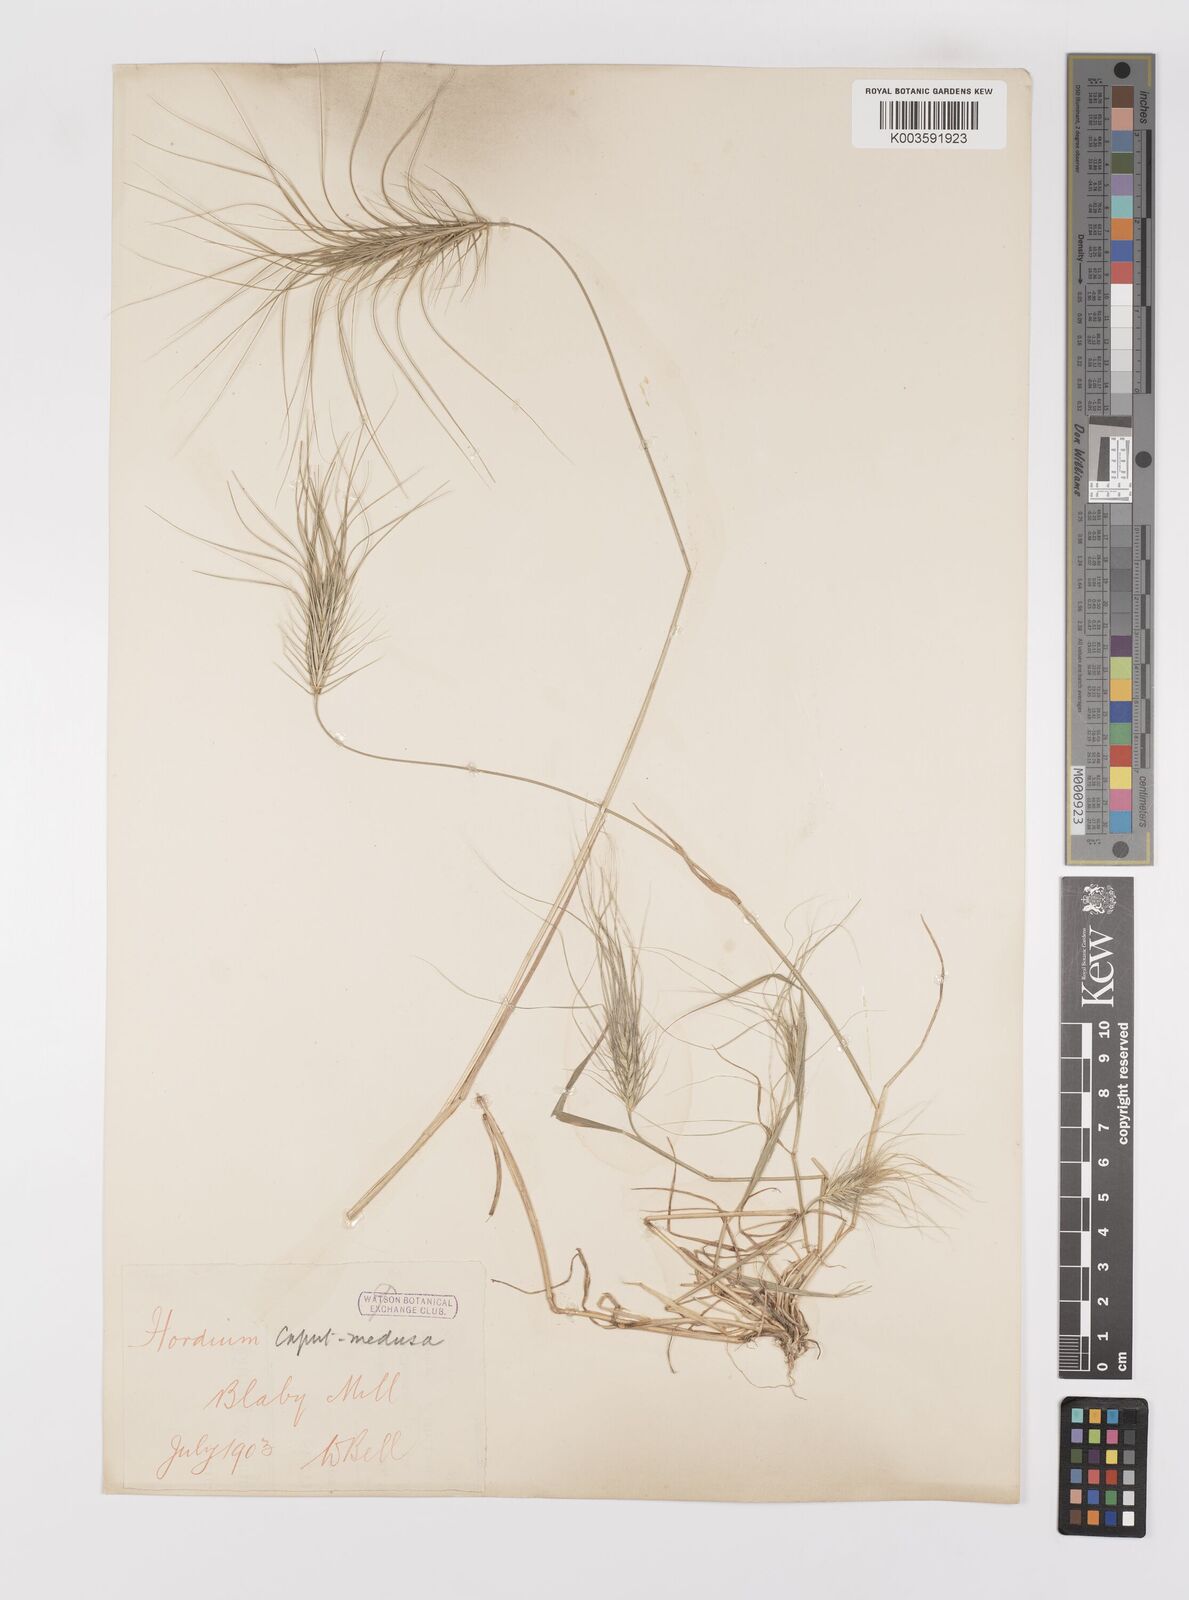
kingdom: Plantae
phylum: Tracheophyta
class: Liliopsida
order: Poales
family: Poaceae
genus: Taeniatherum
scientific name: Taeniatherum caput-medusae
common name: Medusahead
